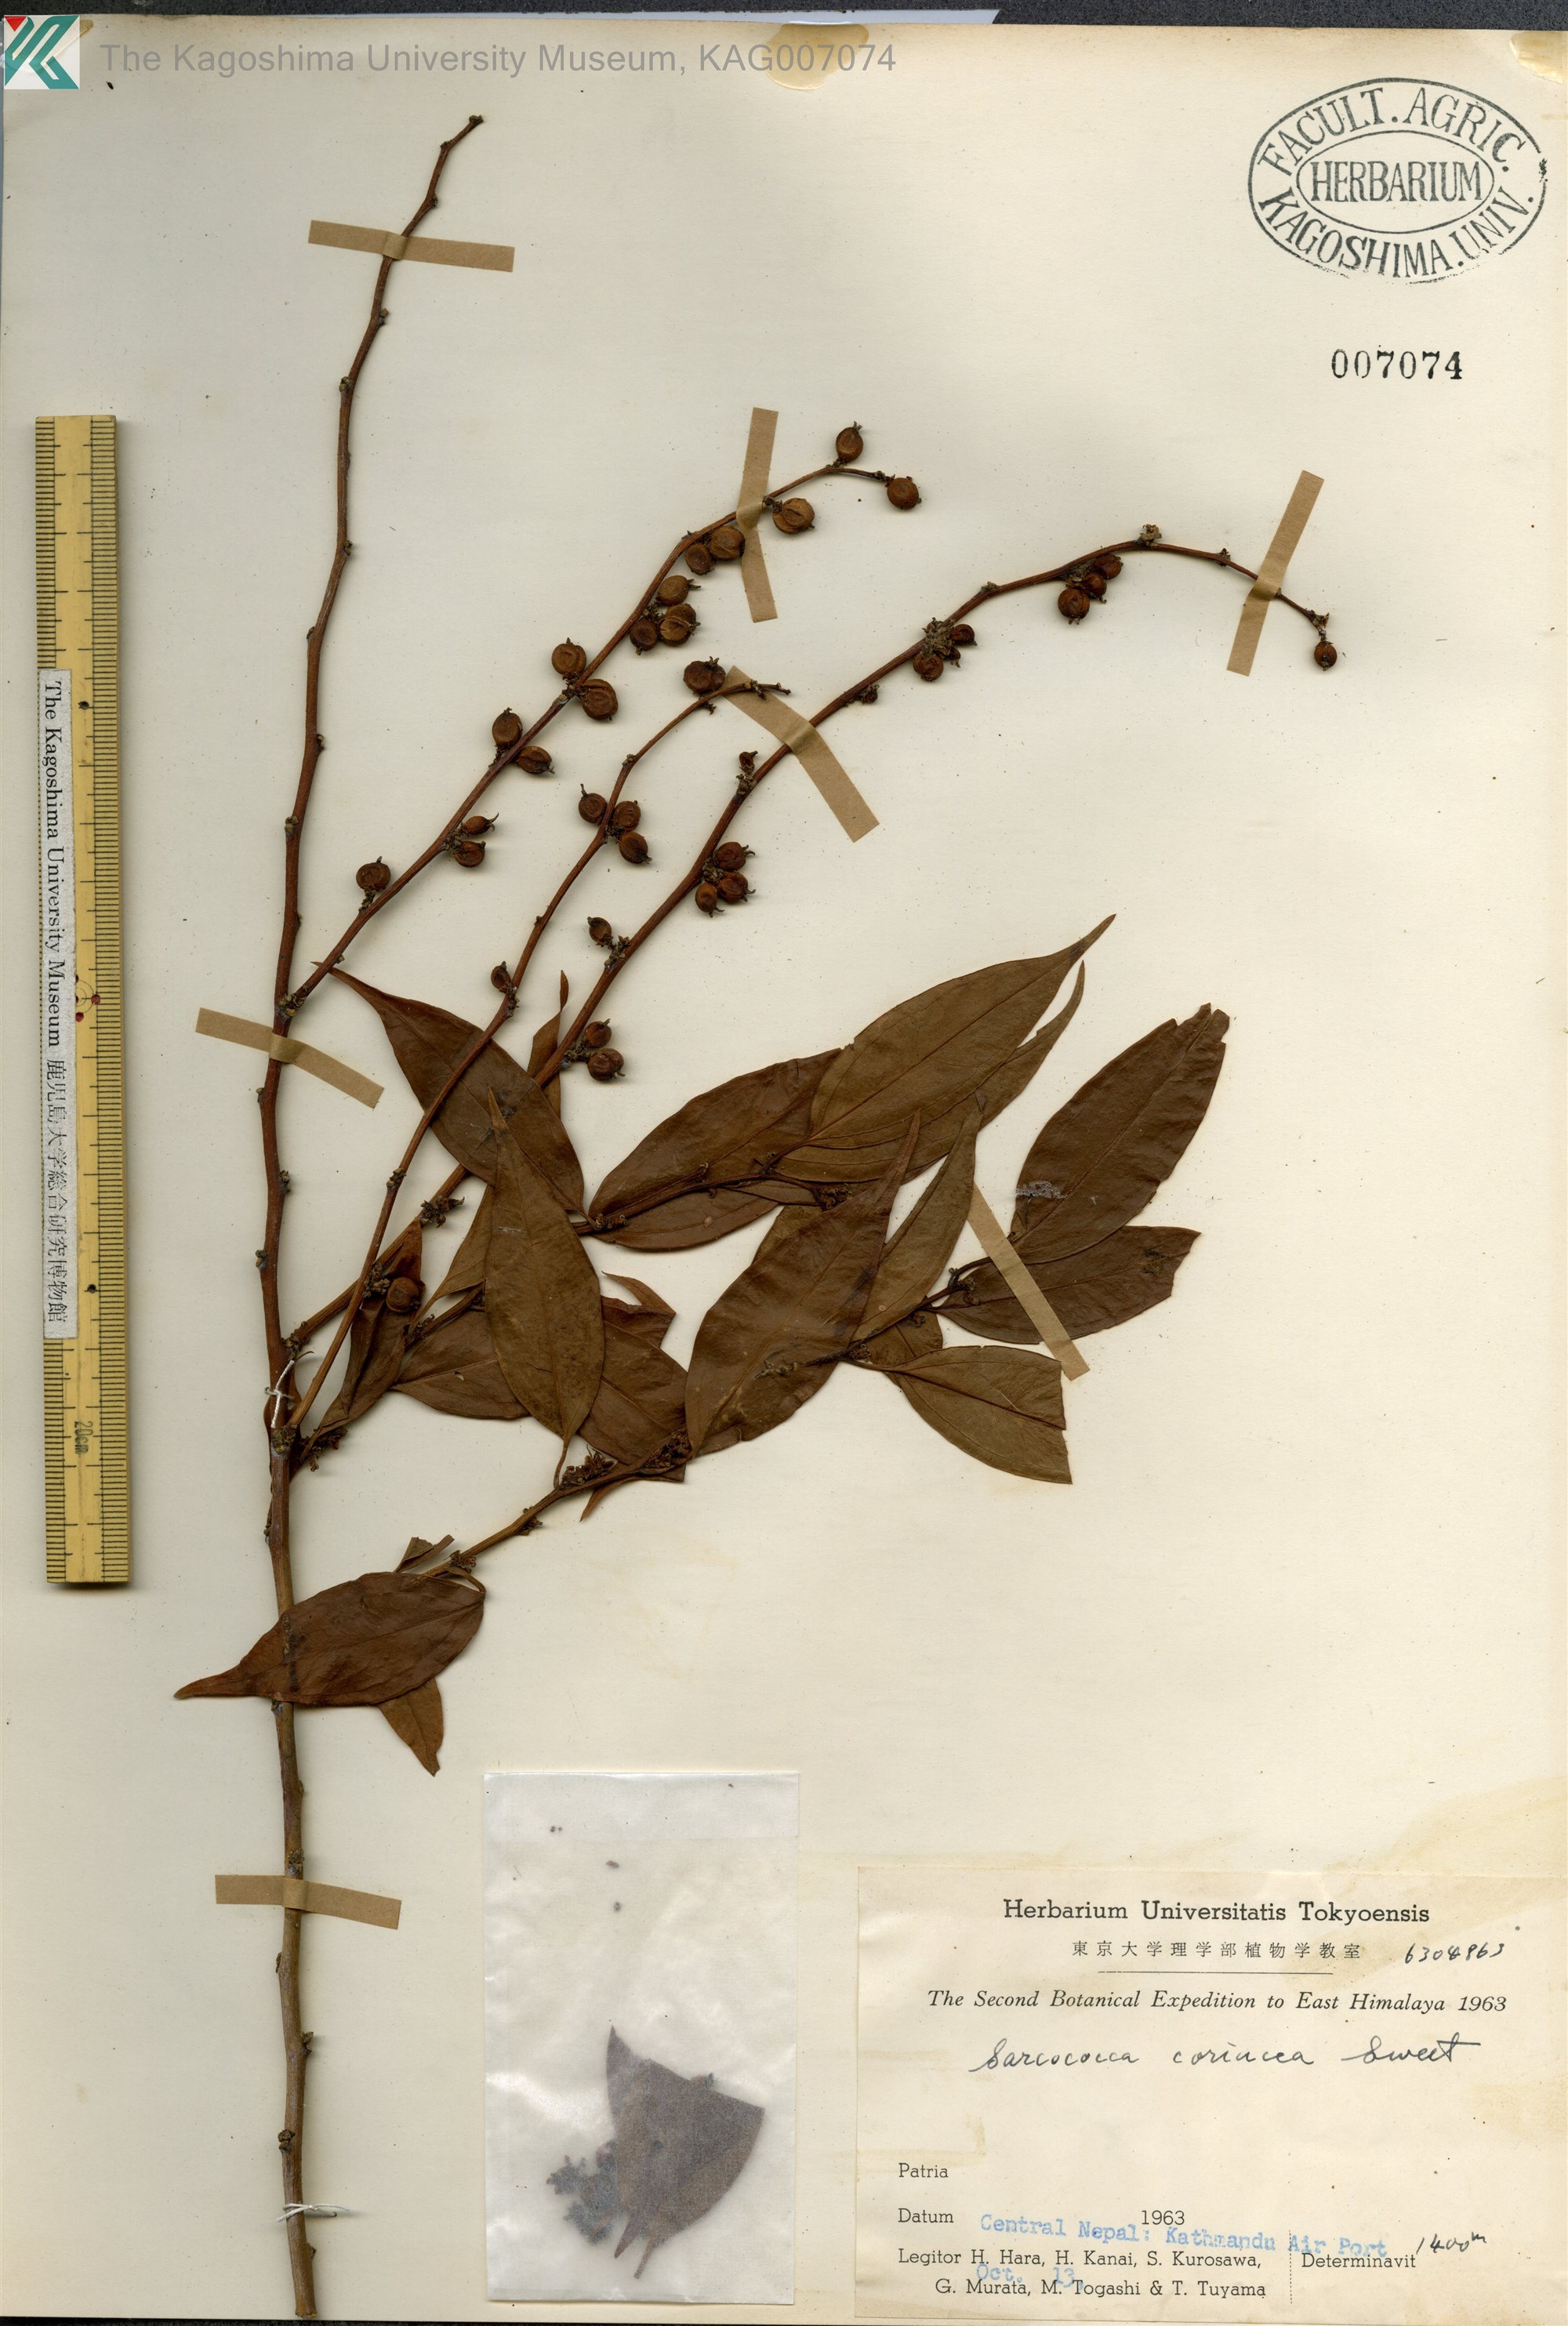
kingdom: Plantae
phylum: Tracheophyta
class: Magnoliopsida
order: Buxales
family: Buxaceae
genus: Sarcococca
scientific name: Sarcococca coriacea
